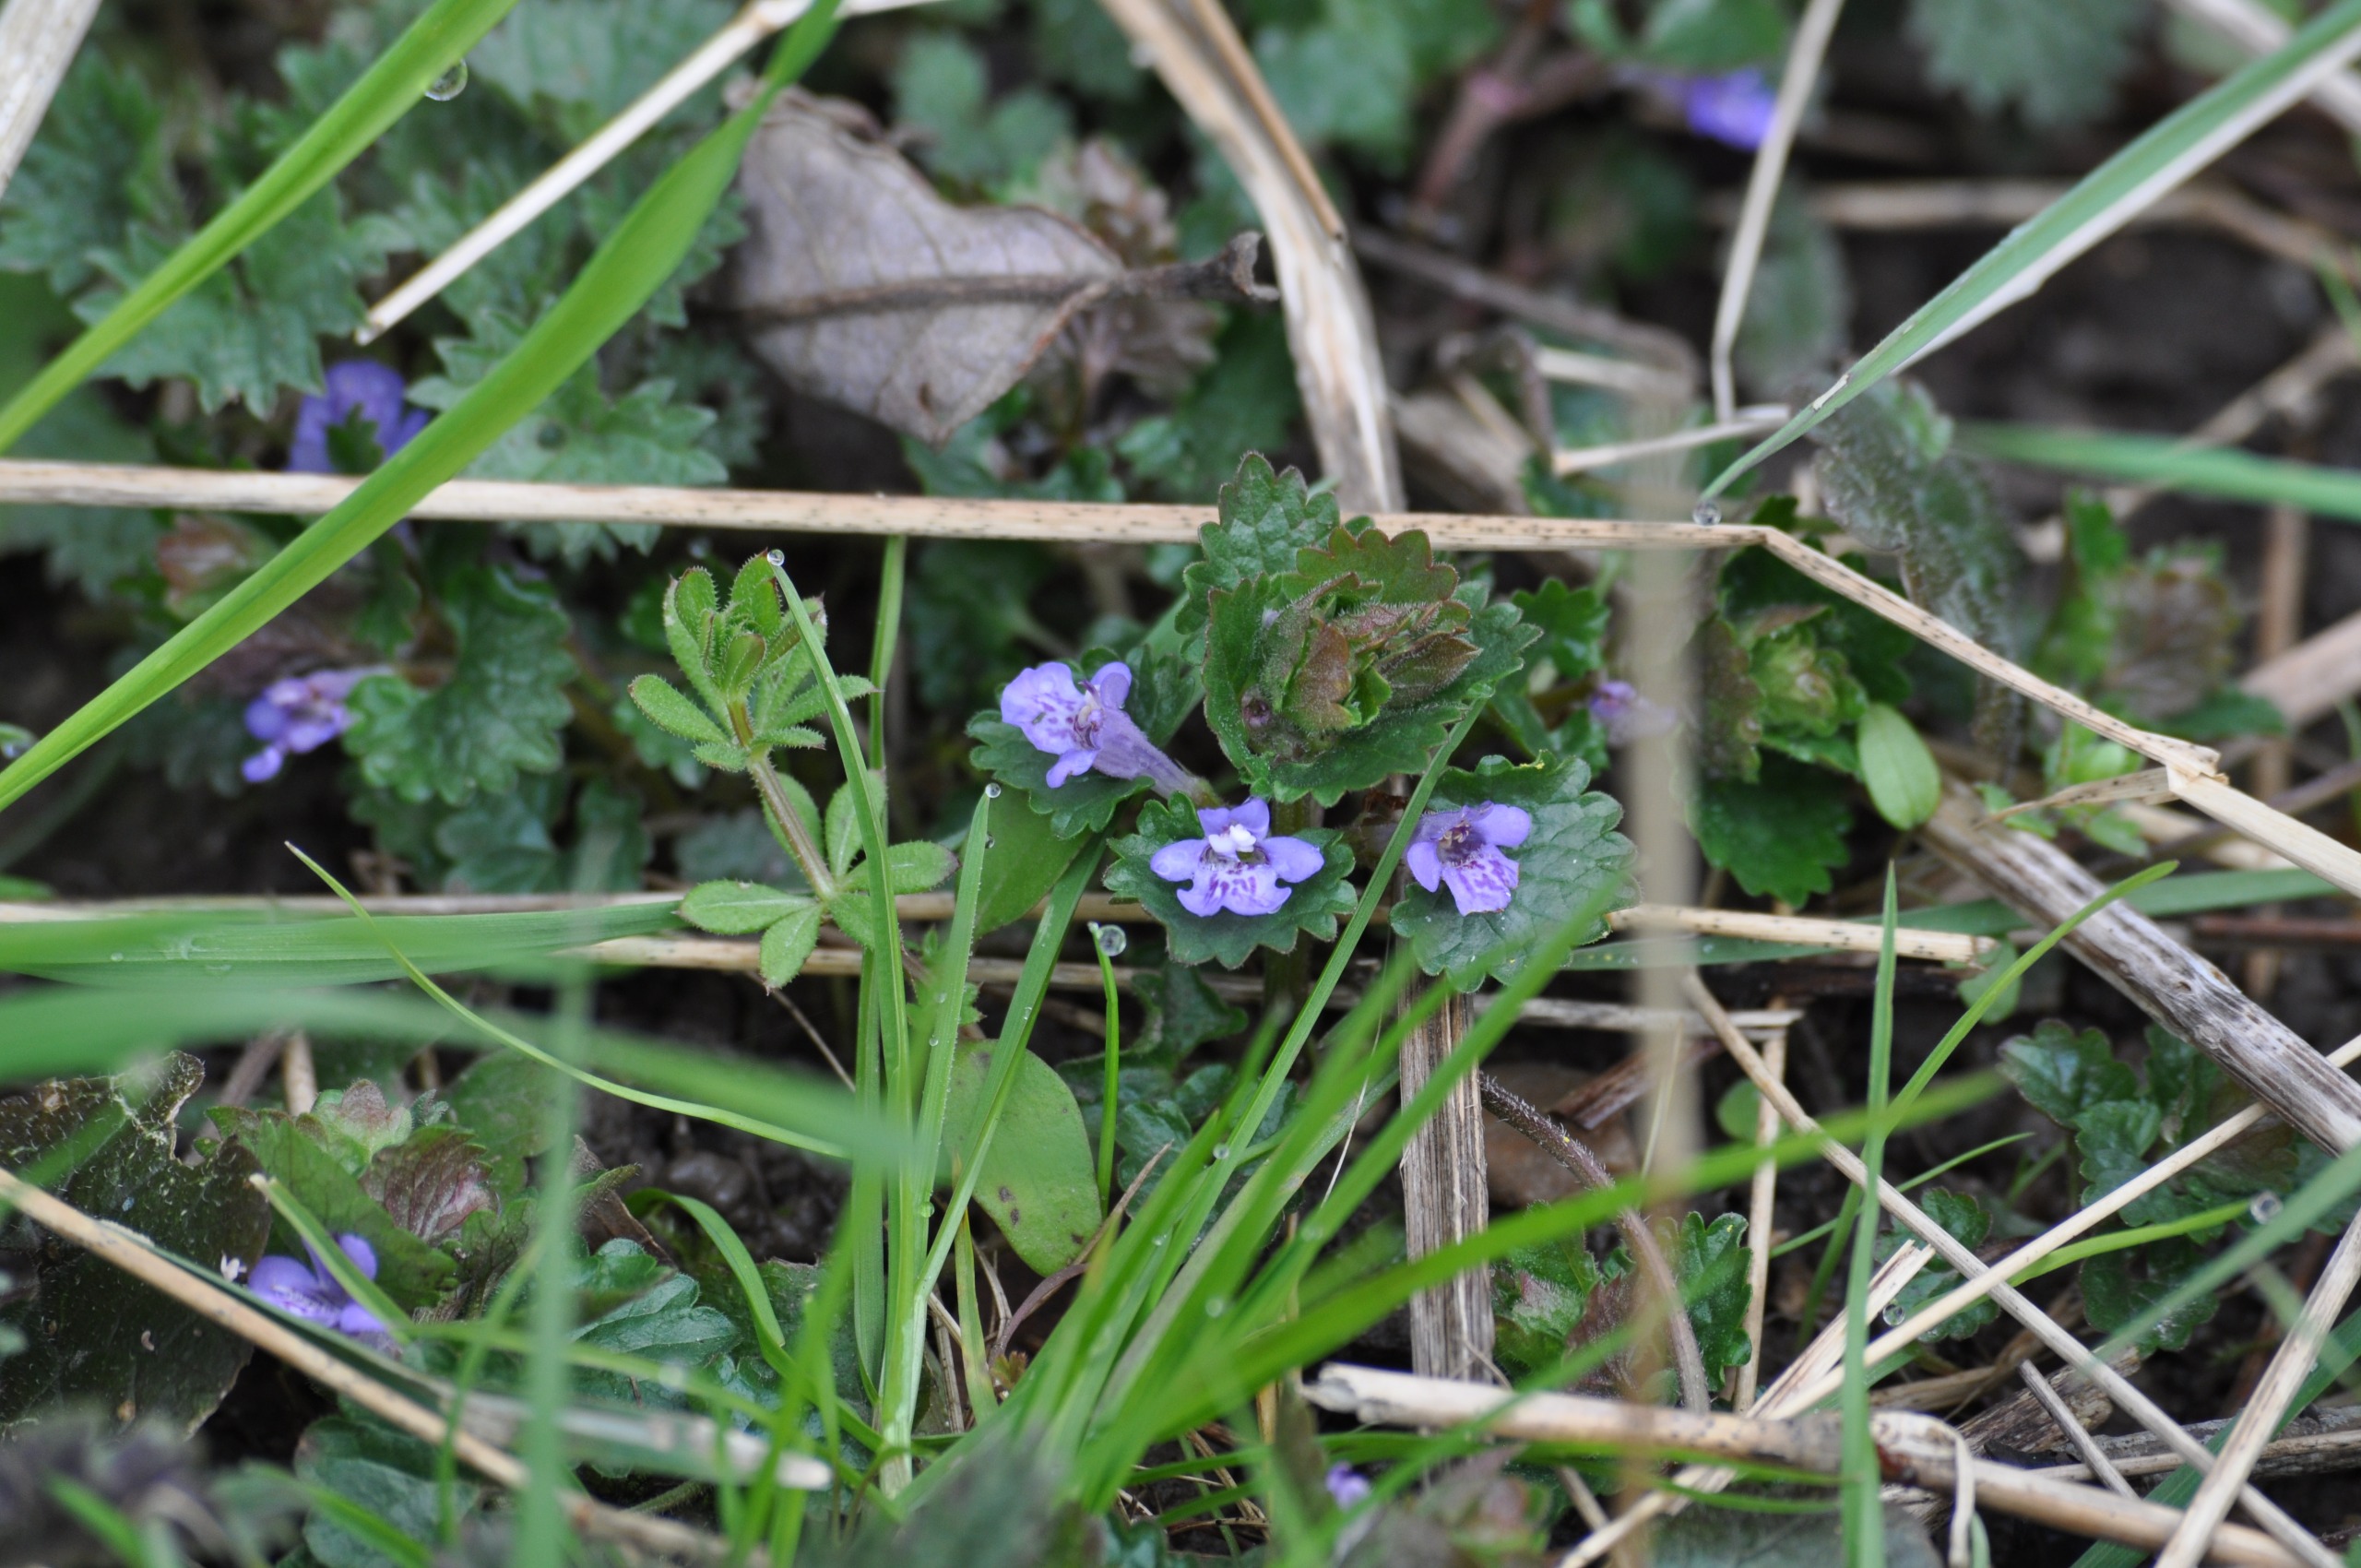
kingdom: Plantae
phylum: Tracheophyta
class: Magnoliopsida
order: Lamiales
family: Lamiaceae
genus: Glechoma
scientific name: Glechoma hederacea
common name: Korsknap
